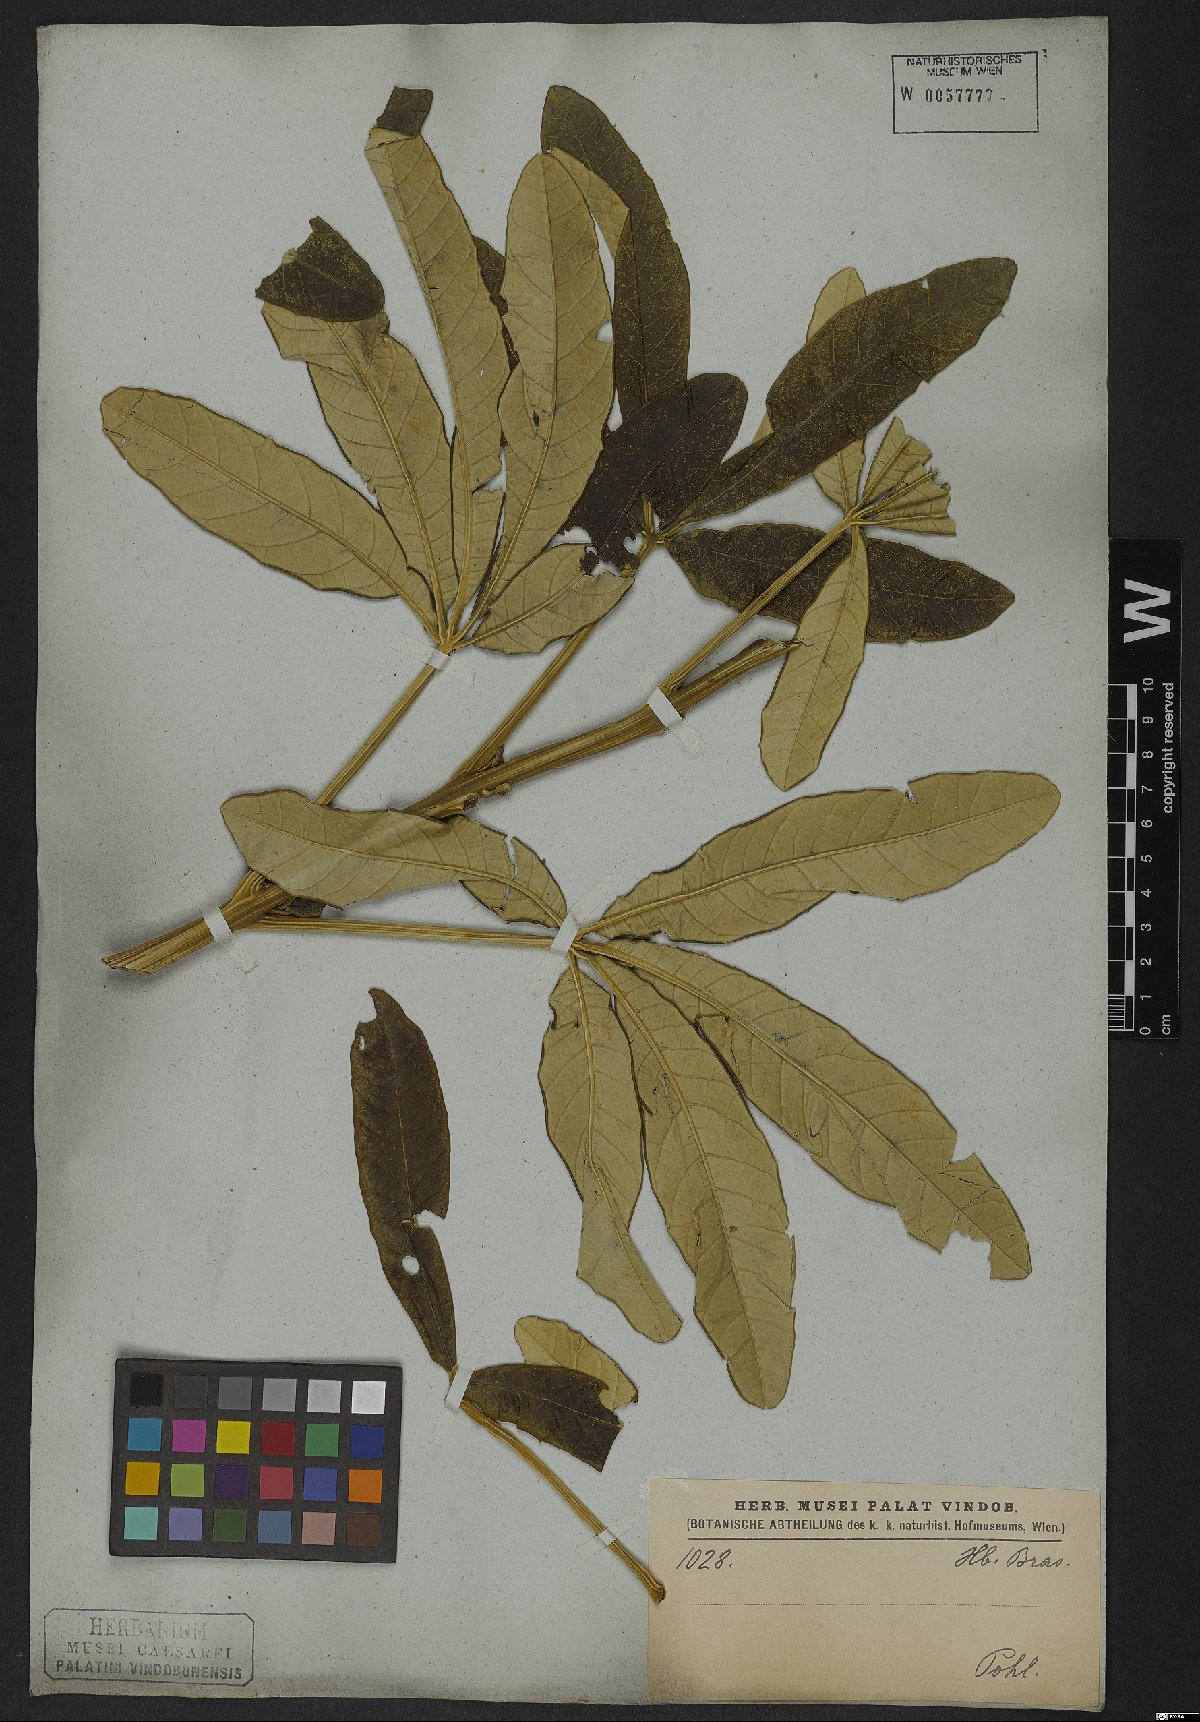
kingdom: Plantae
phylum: Tracheophyta
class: Magnoliopsida
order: Lamiales
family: Bignoniaceae
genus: Zeyheria
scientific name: Zeyheria montana
